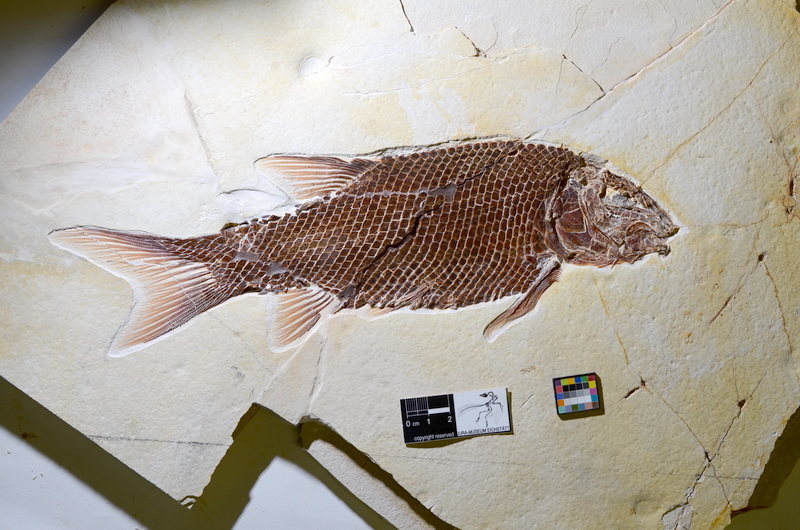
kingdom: Animalia
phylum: Chordata
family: Callipurbeckiidae
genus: Macrosemimimus
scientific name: Macrosemimimus fegerti
